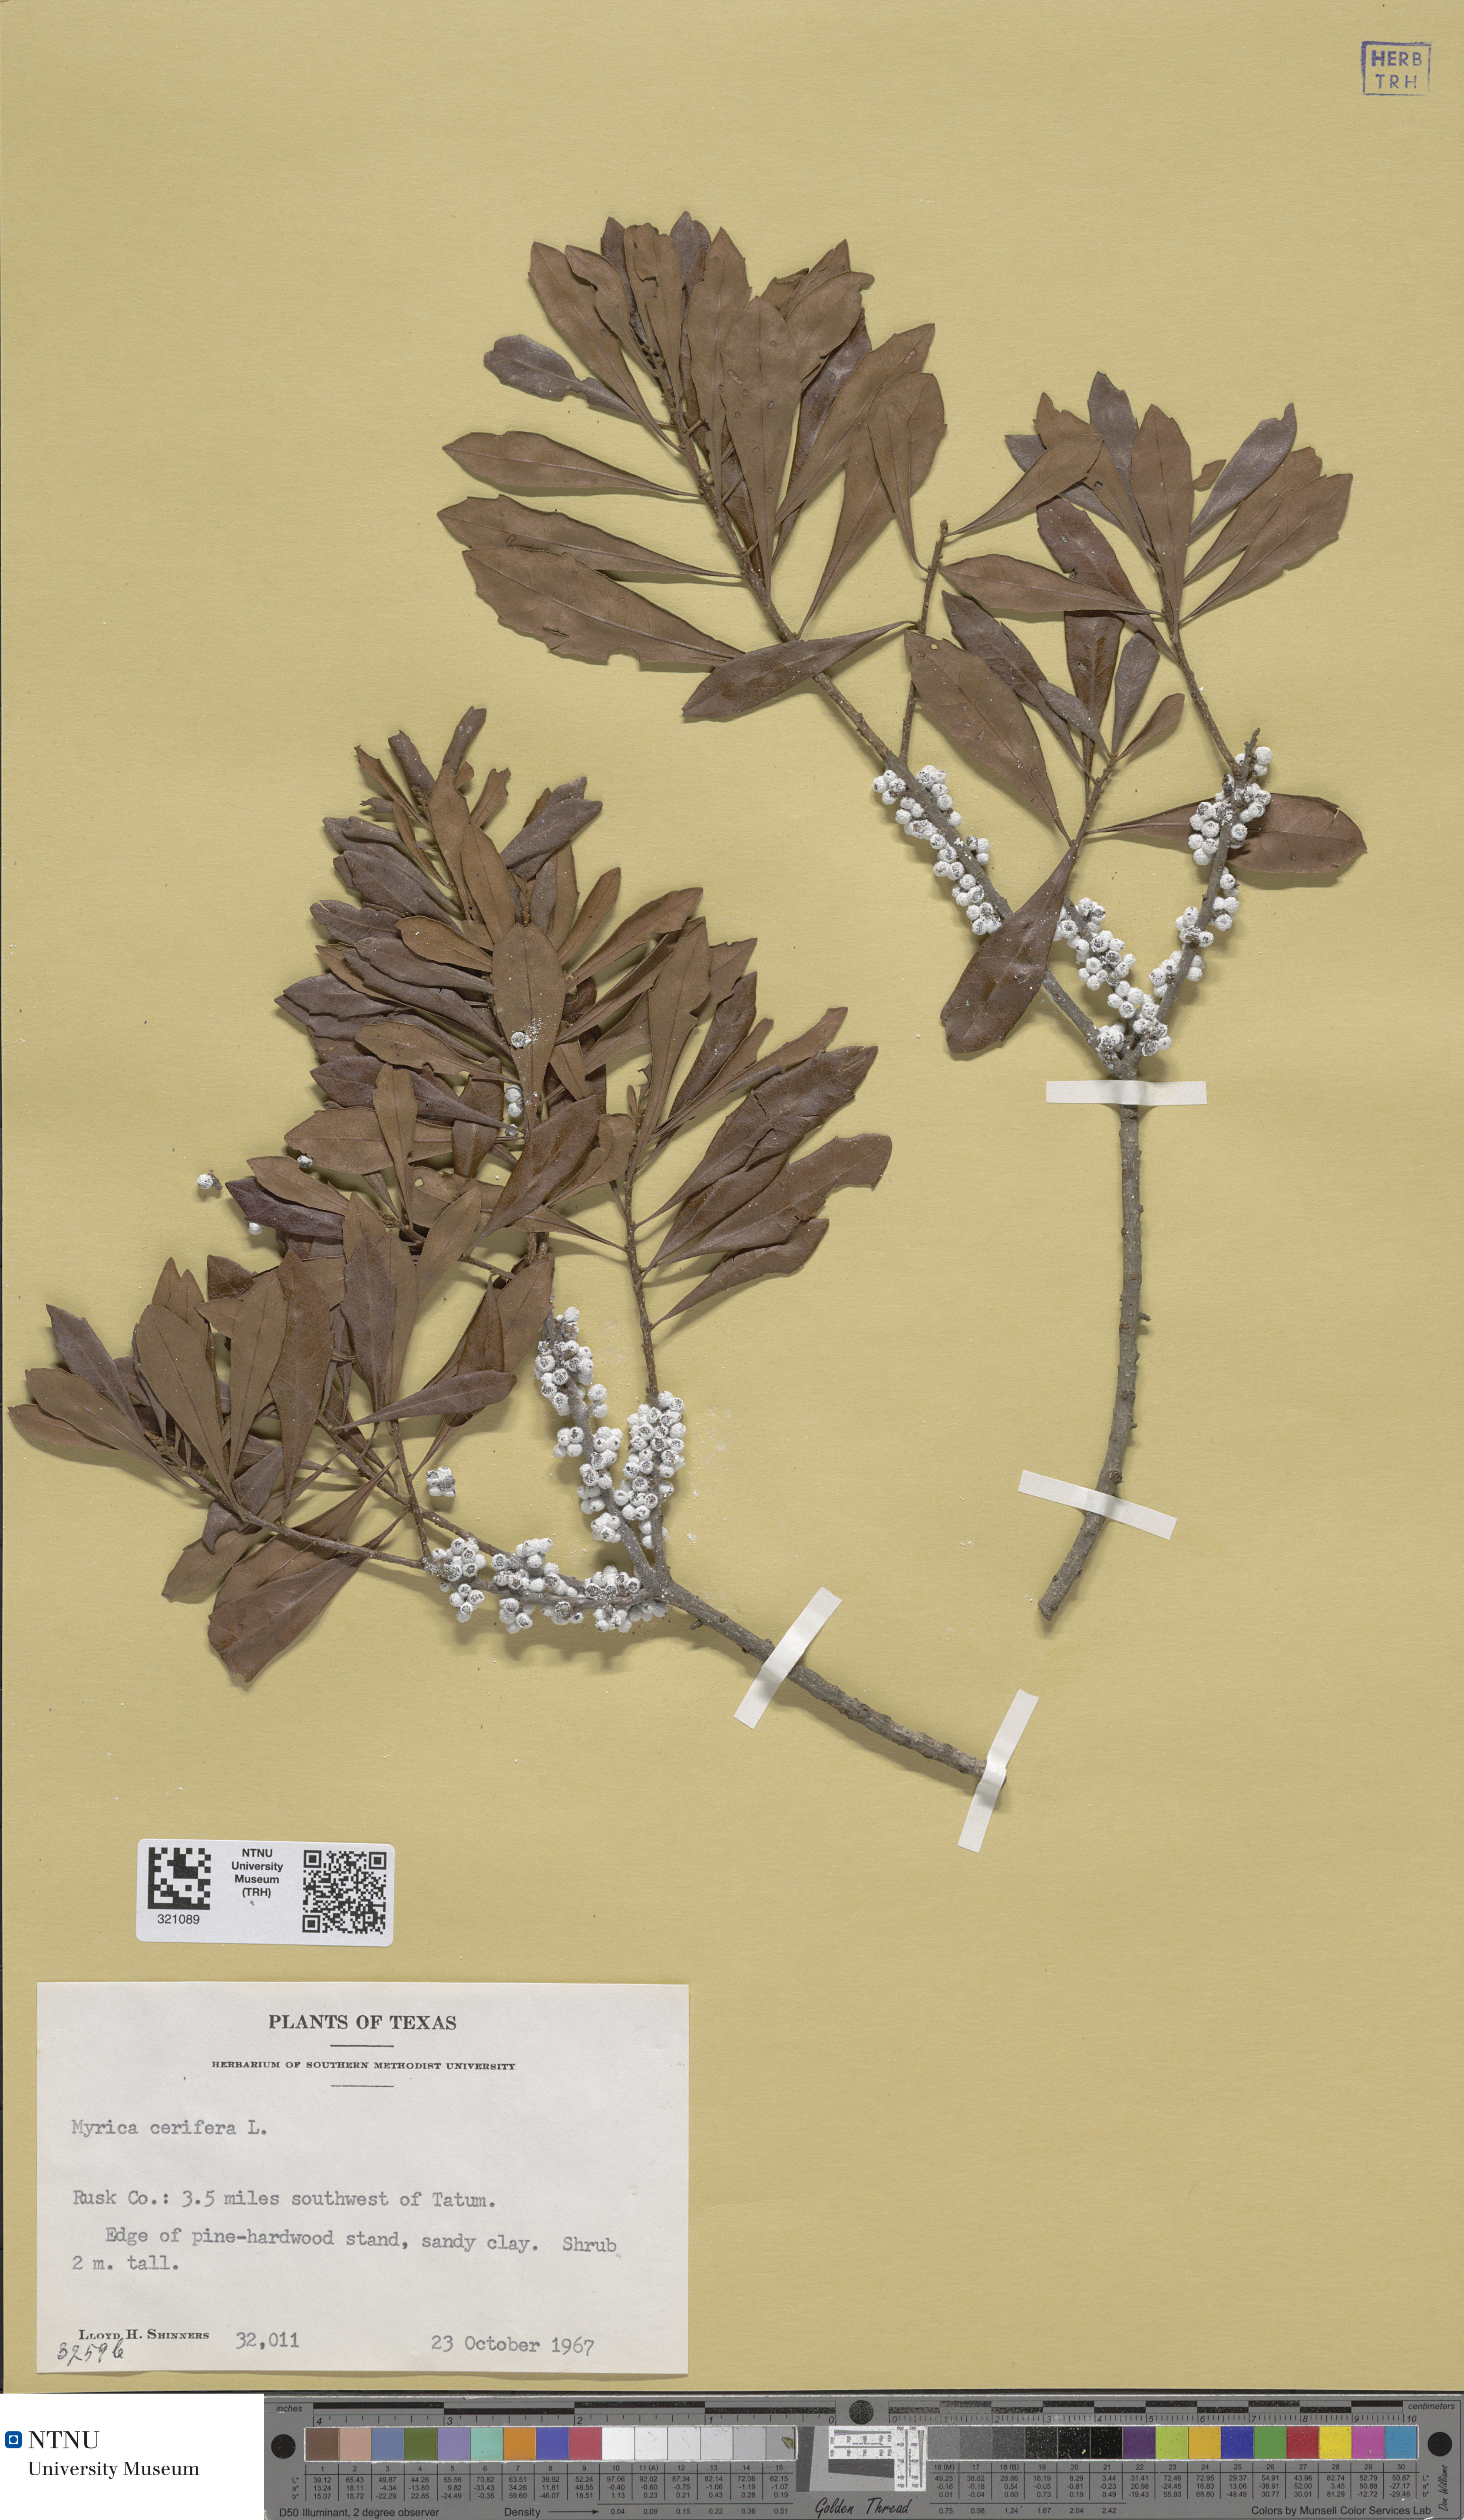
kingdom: Plantae
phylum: Tracheophyta
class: Magnoliopsida
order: Fagales
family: Myricaceae
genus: Morella
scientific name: Morella cerifera
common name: Wax myrtle
